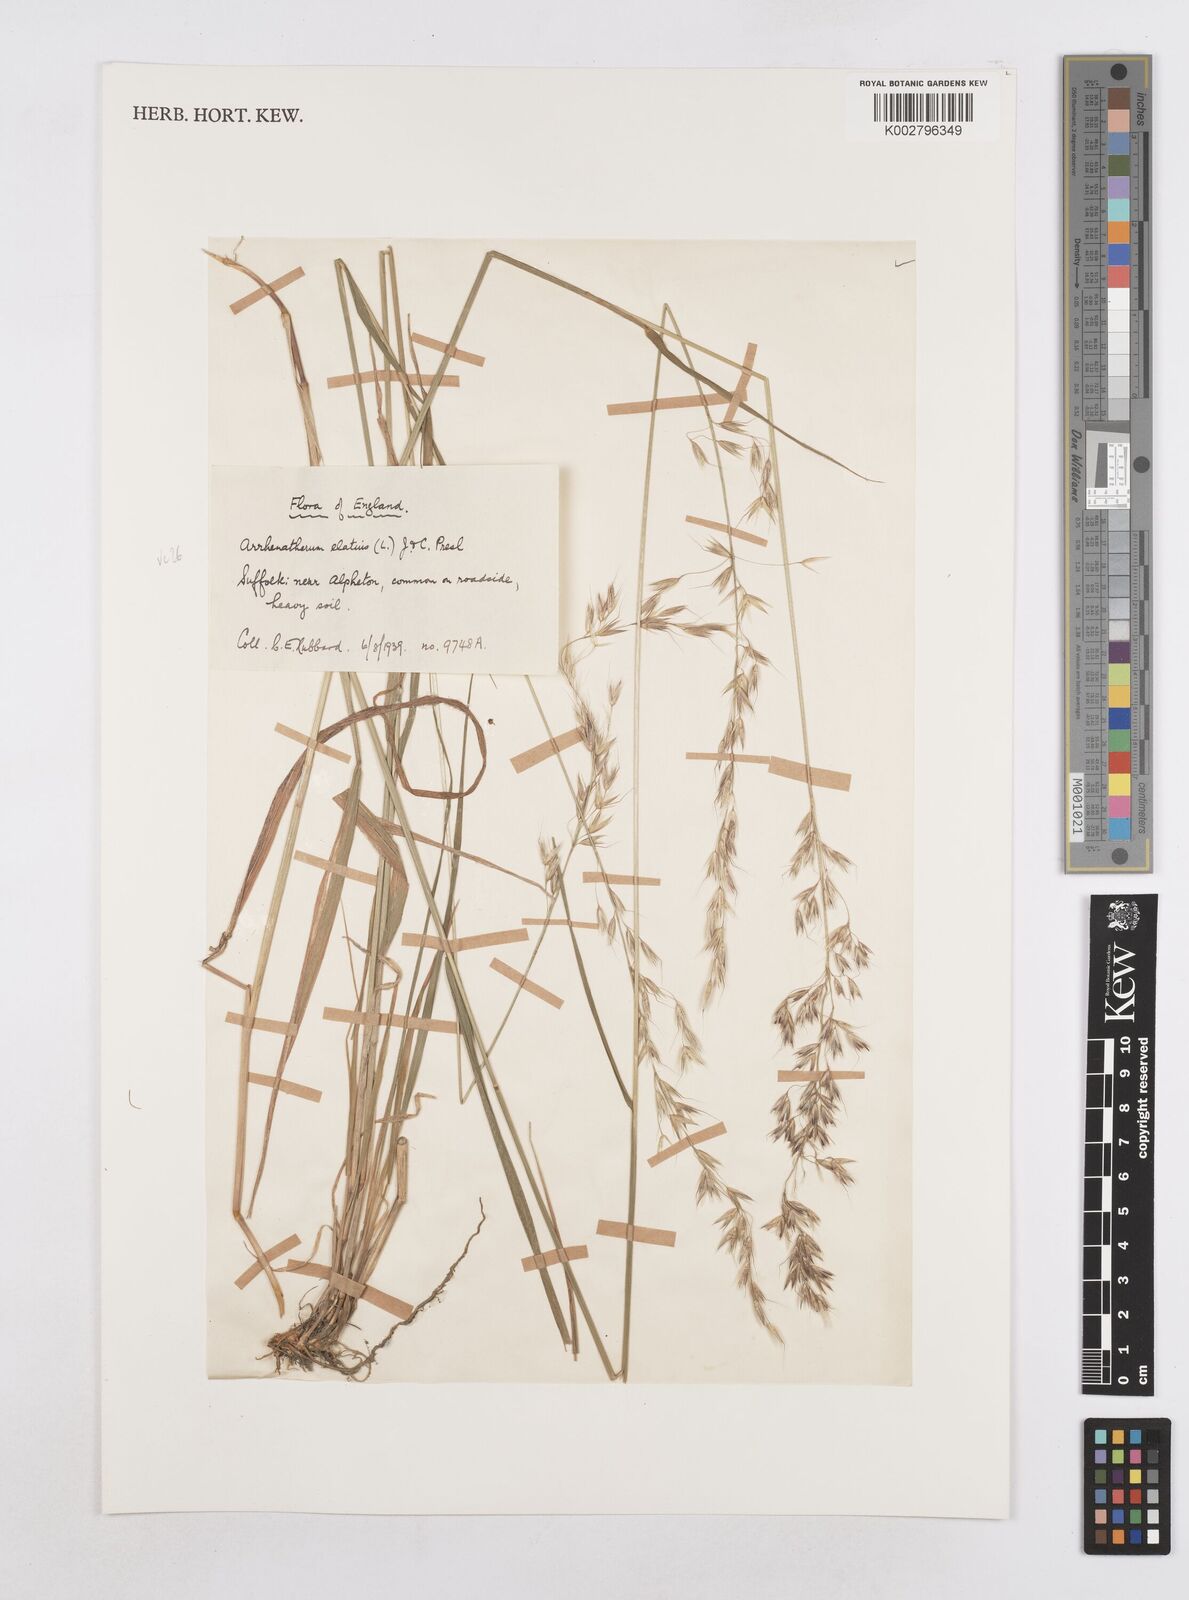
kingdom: Plantae
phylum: Tracheophyta
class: Liliopsida
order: Poales
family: Poaceae
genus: Arrhenatherum
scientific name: Arrhenatherum elatius
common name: Tall oatgrass
